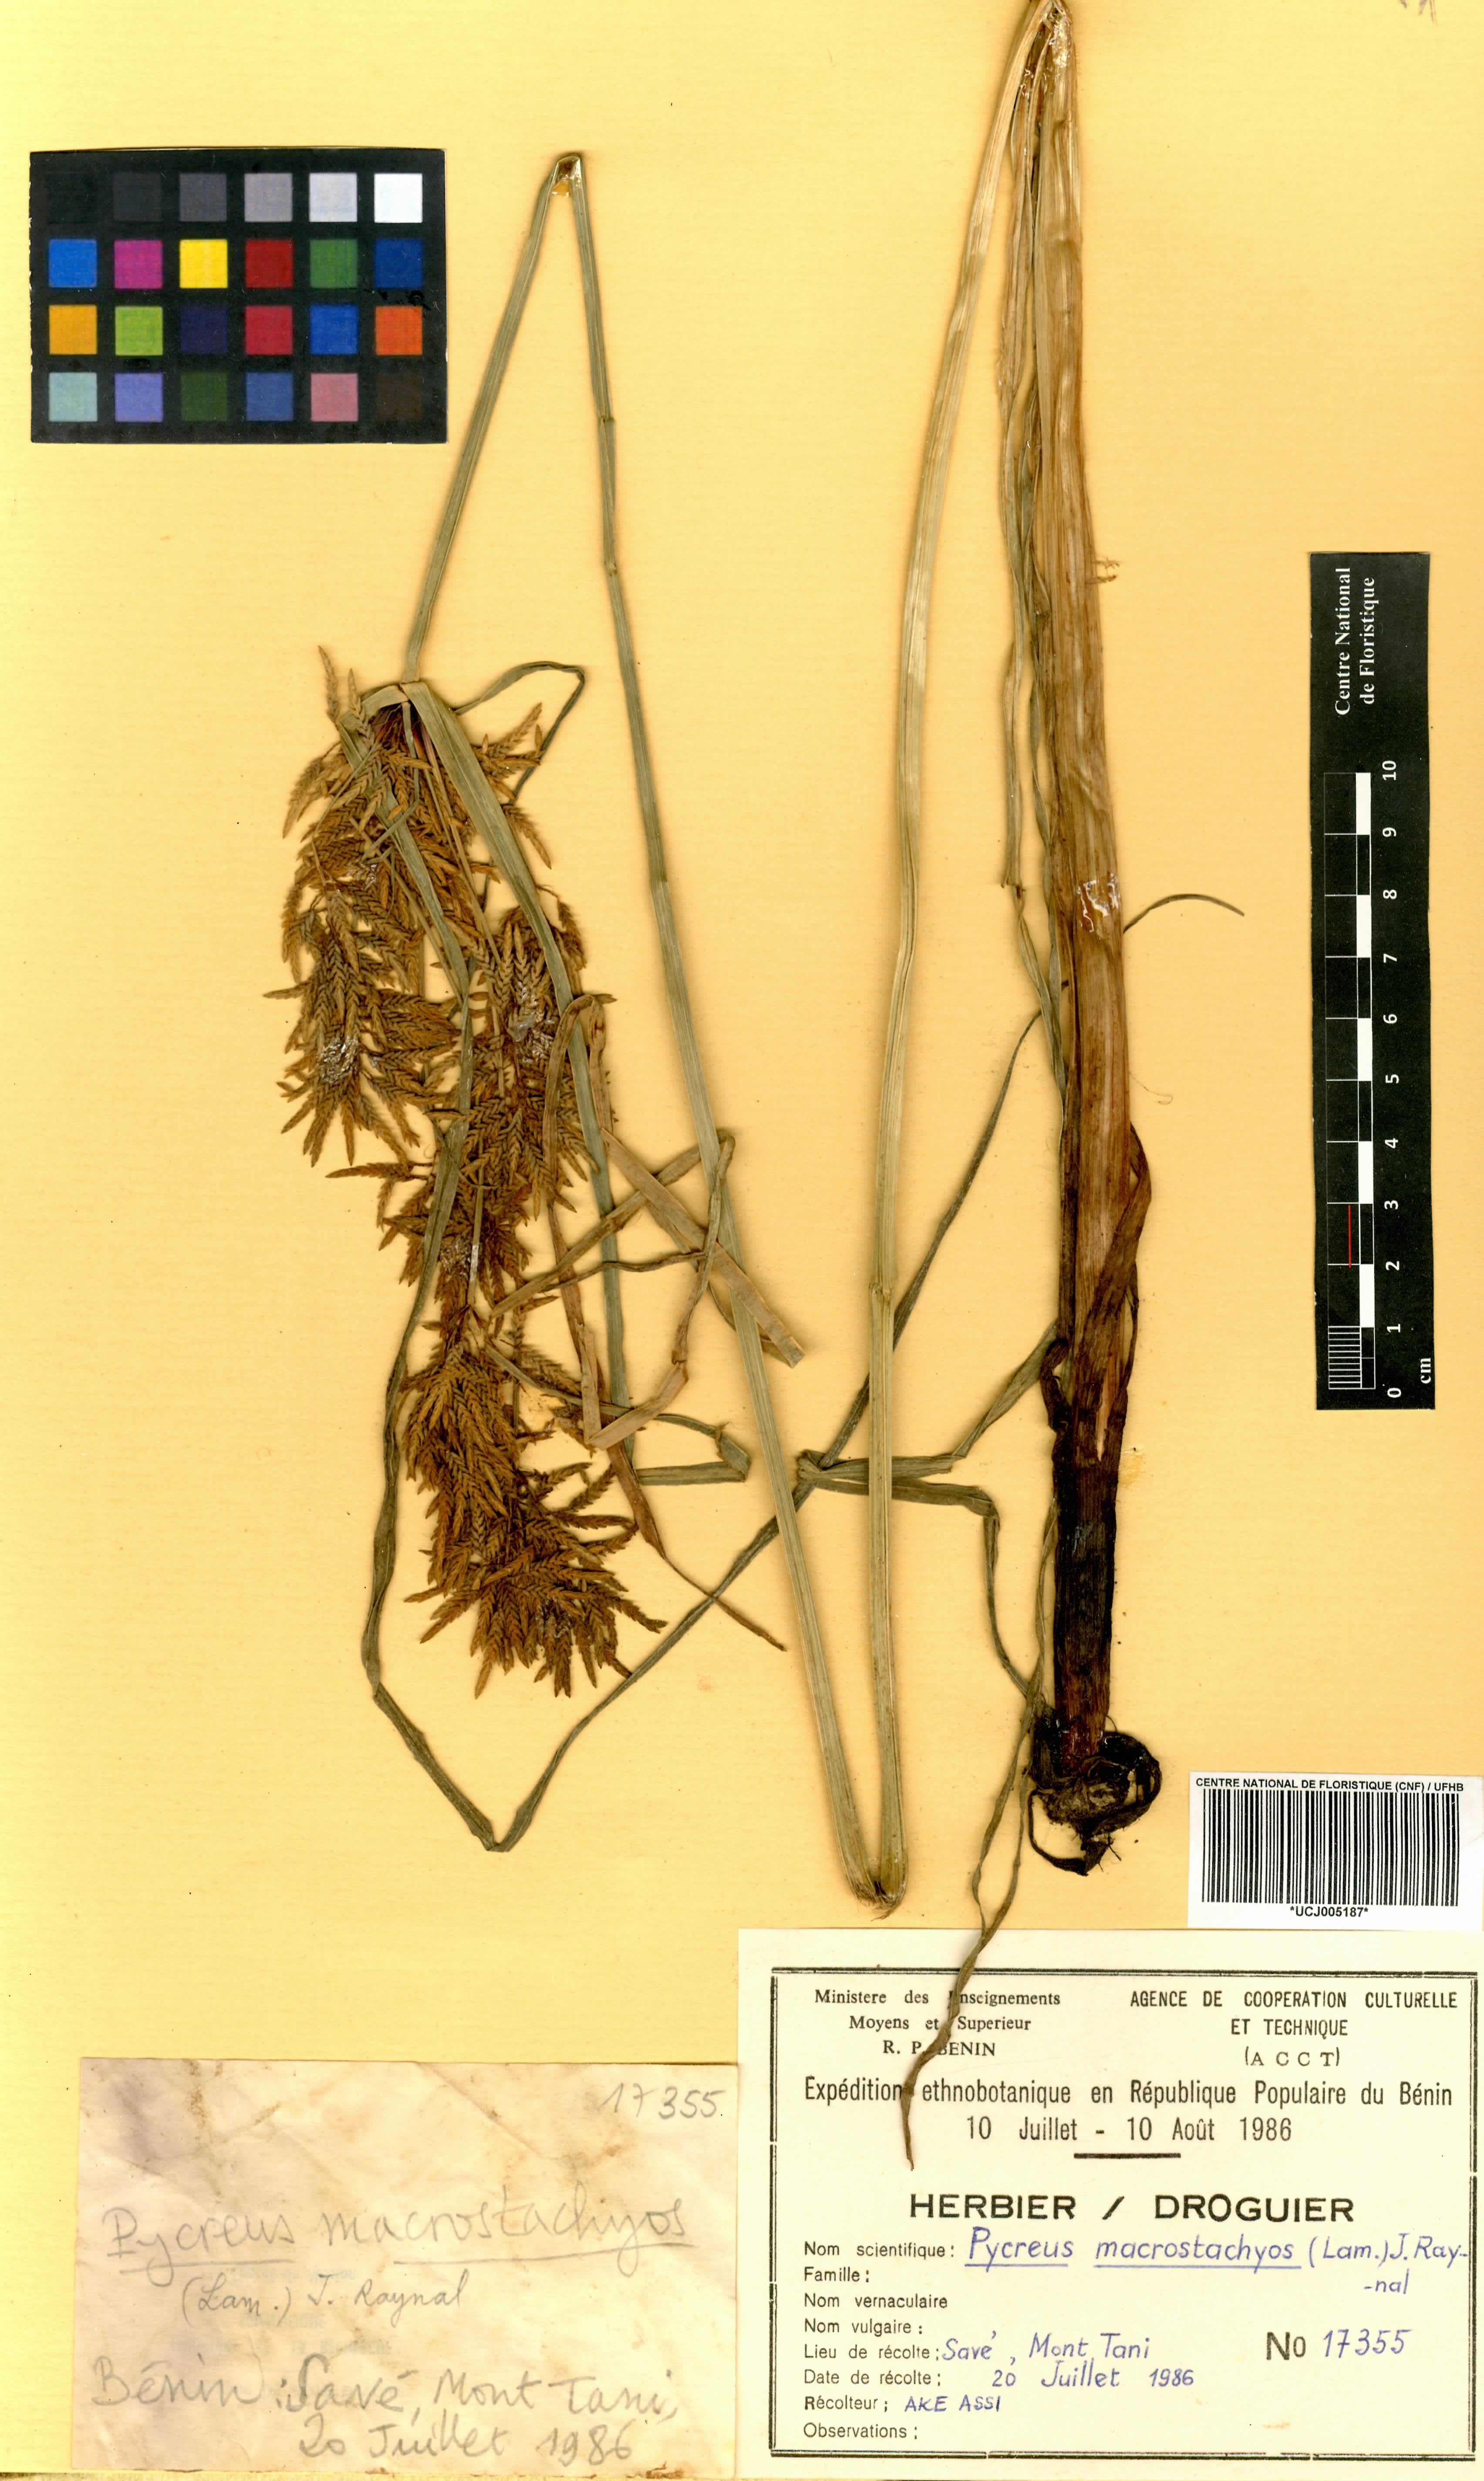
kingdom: Plantae
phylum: Tracheophyta
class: Liliopsida
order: Poales
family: Cyperaceae
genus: Cyperus
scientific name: Cyperus macrostachyos
